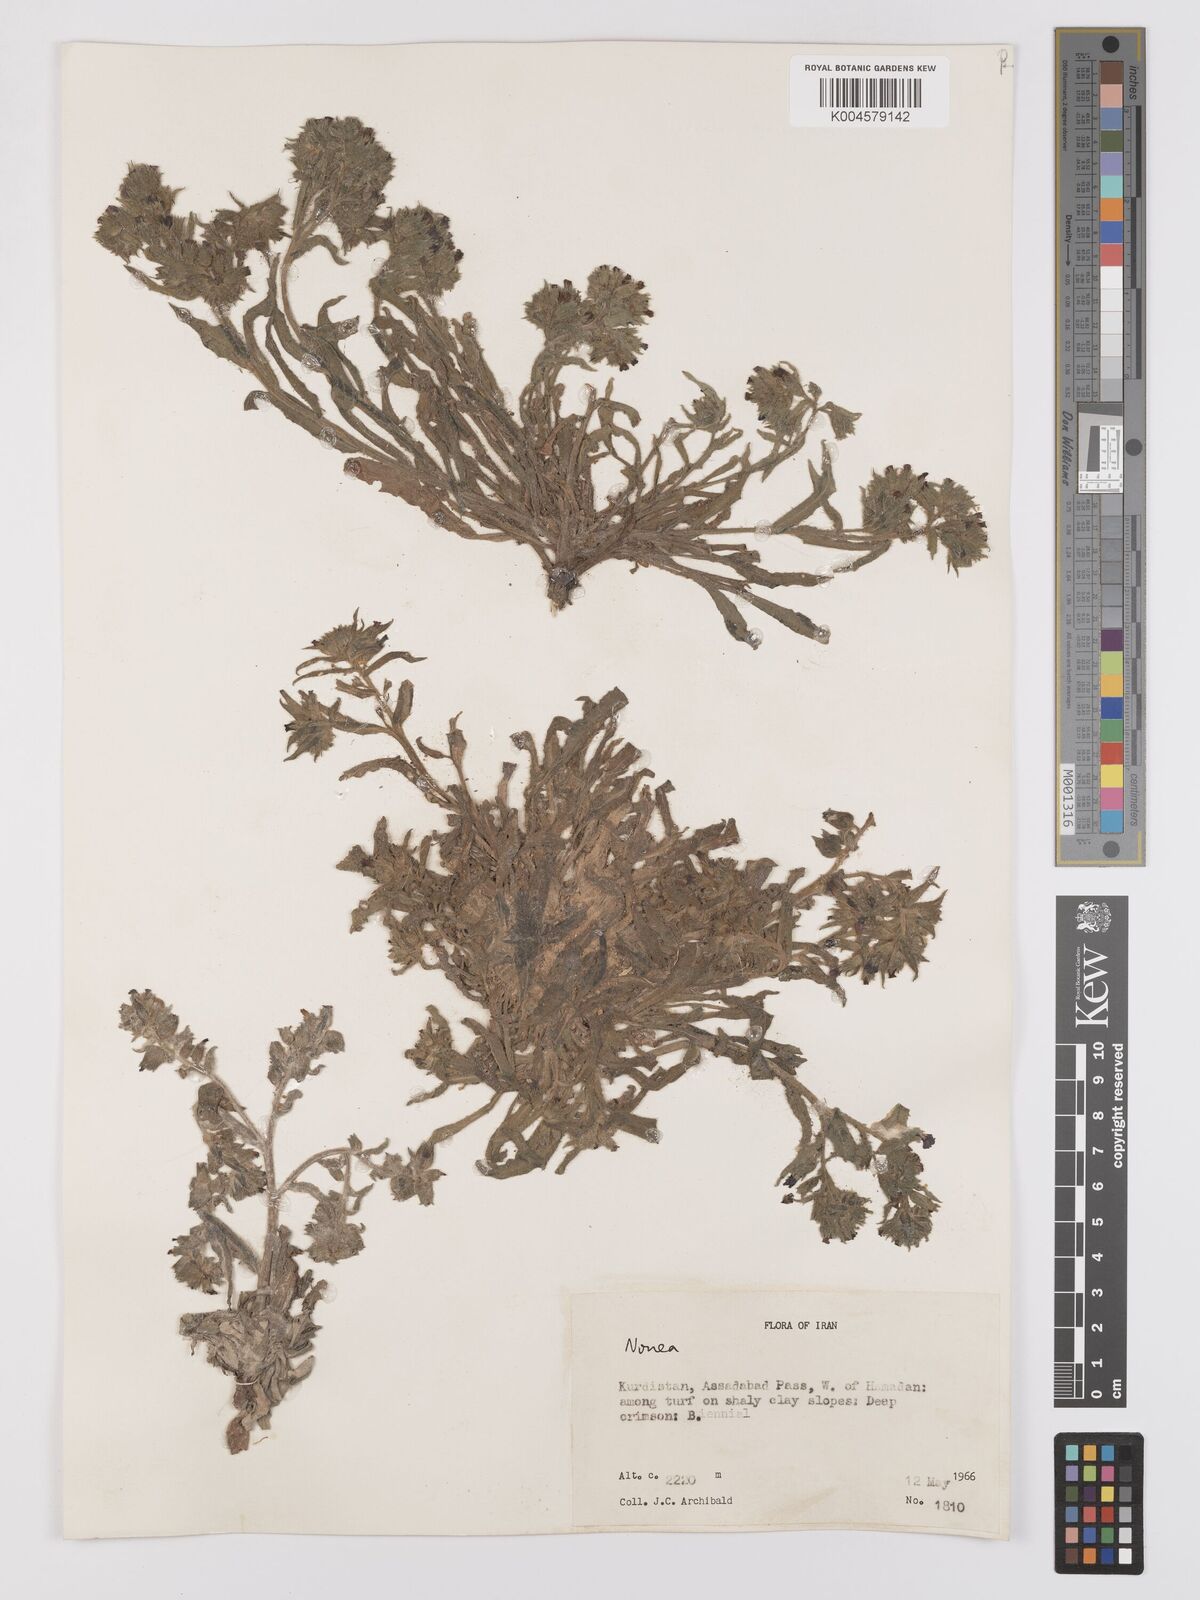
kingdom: Plantae
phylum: Tracheophyta
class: Magnoliopsida
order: Boraginales
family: Boraginaceae
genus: Nonea
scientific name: Nonea
